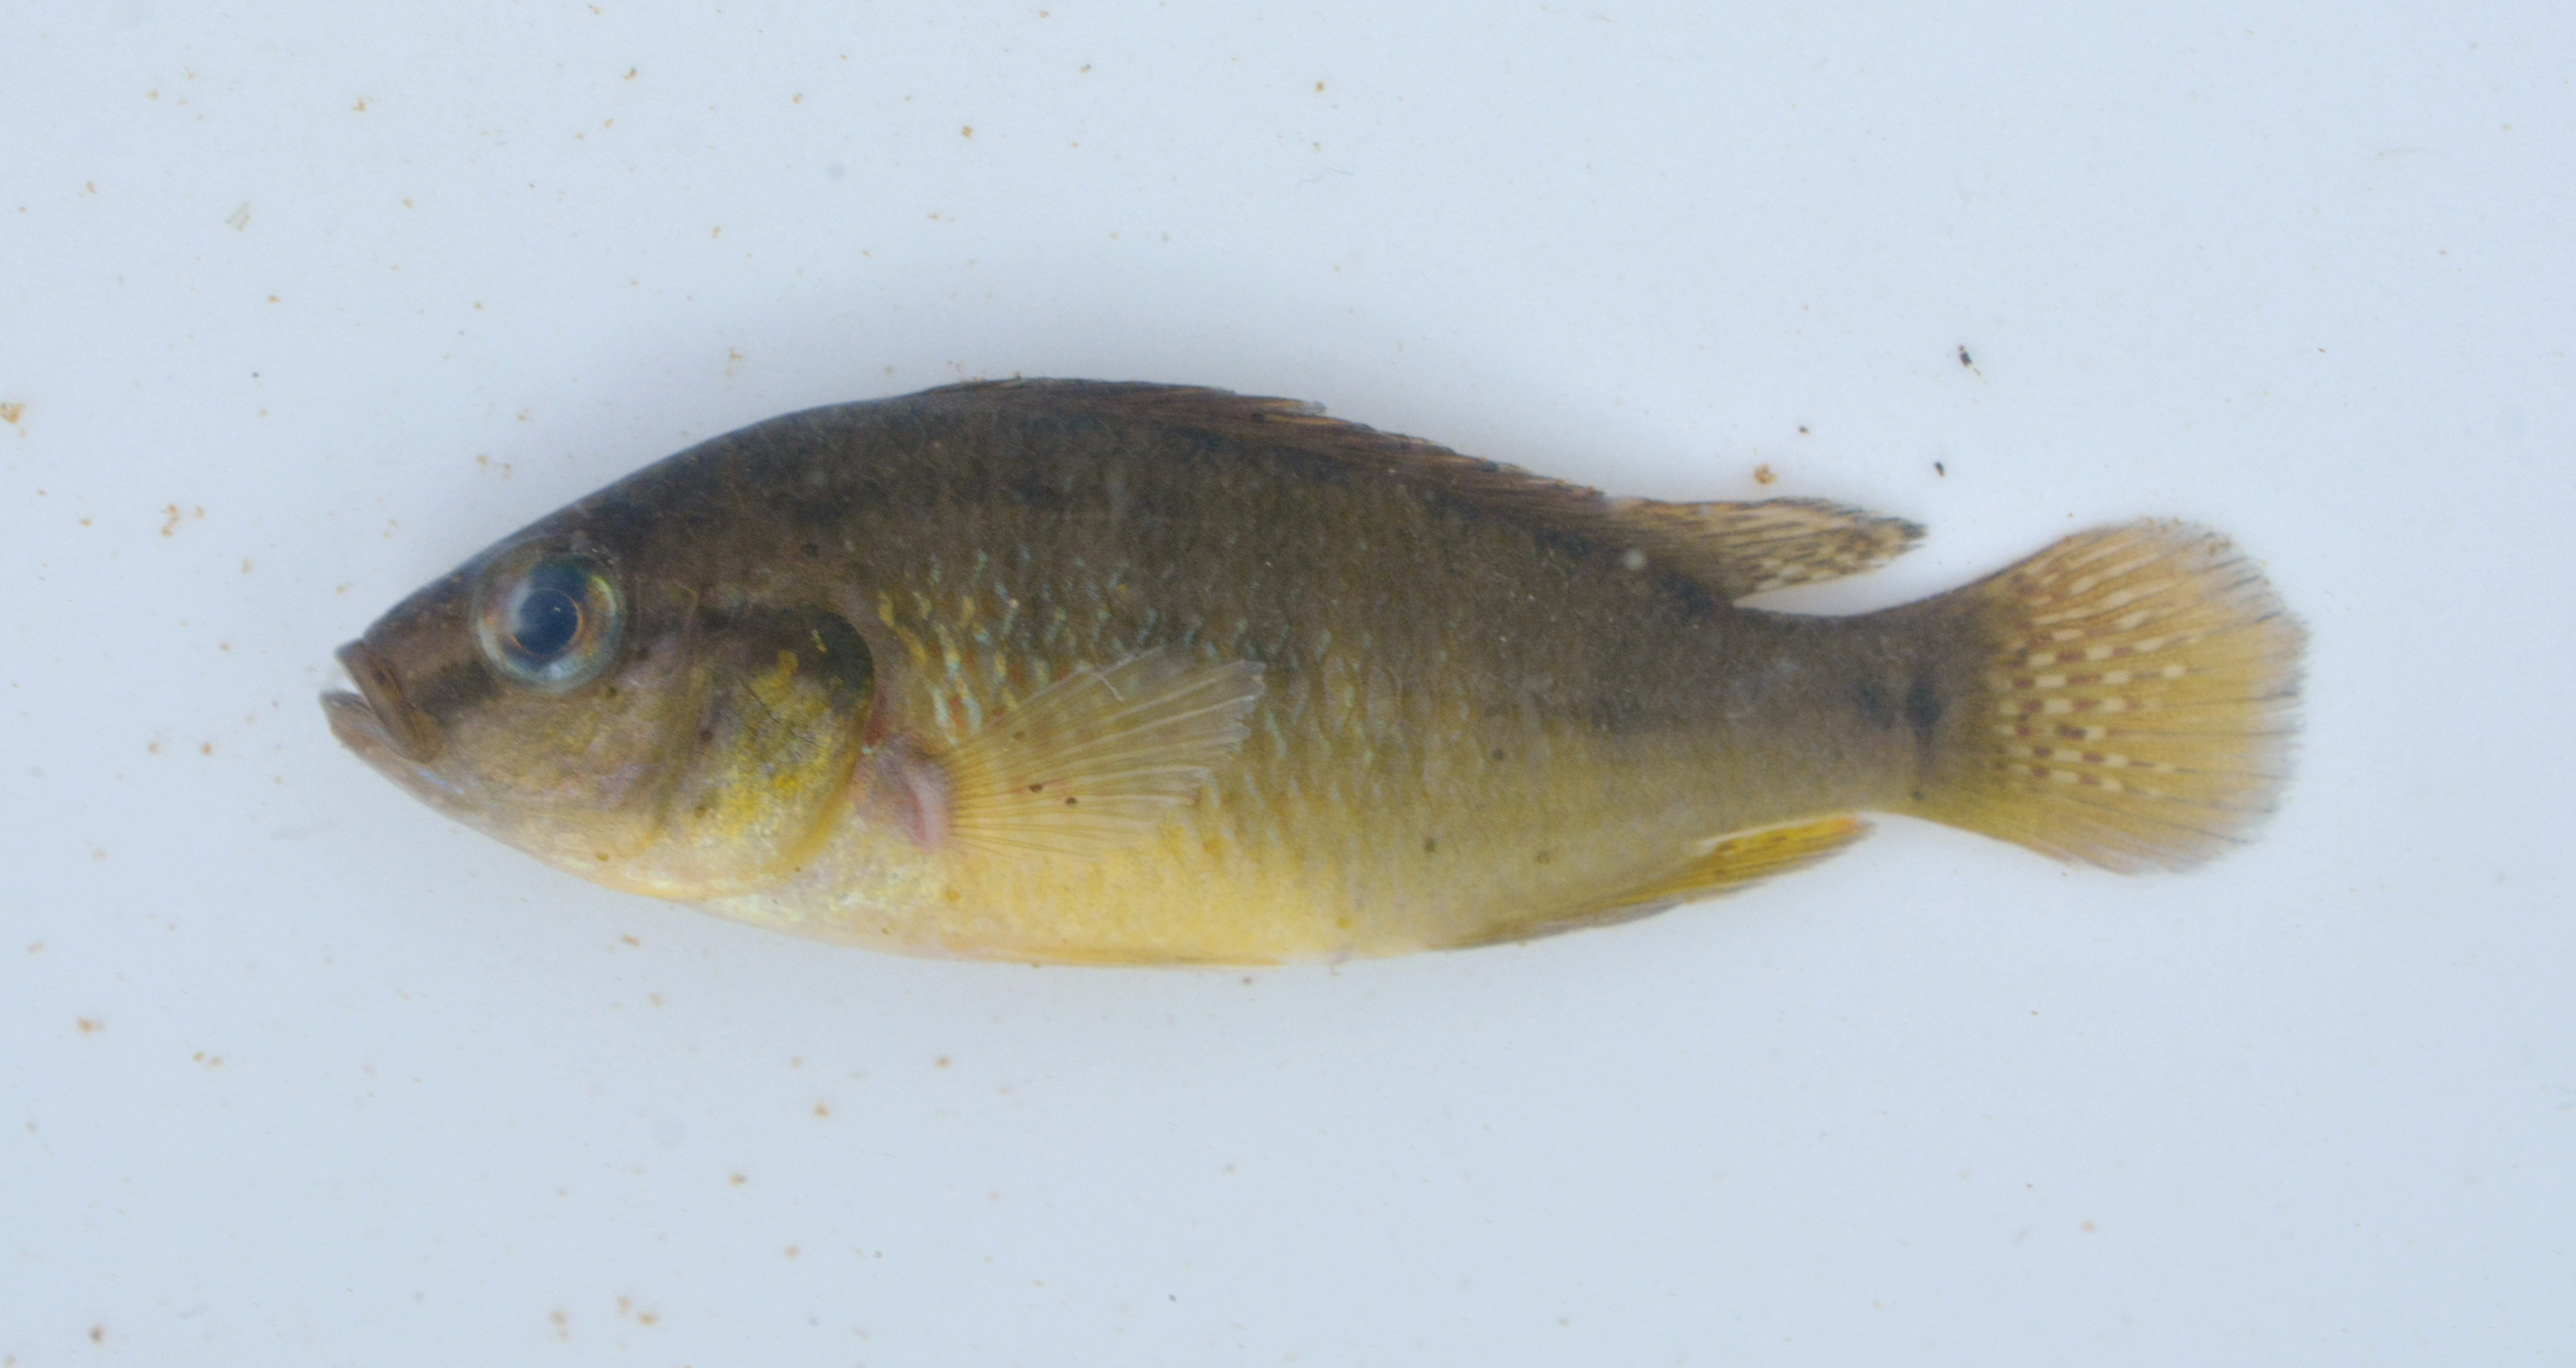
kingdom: Animalia
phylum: Chordata
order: Perciformes
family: Cichlidae
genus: Pseudocrenilabrus
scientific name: Pseudocrenilabrus philander
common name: Southern mouthbrooder
